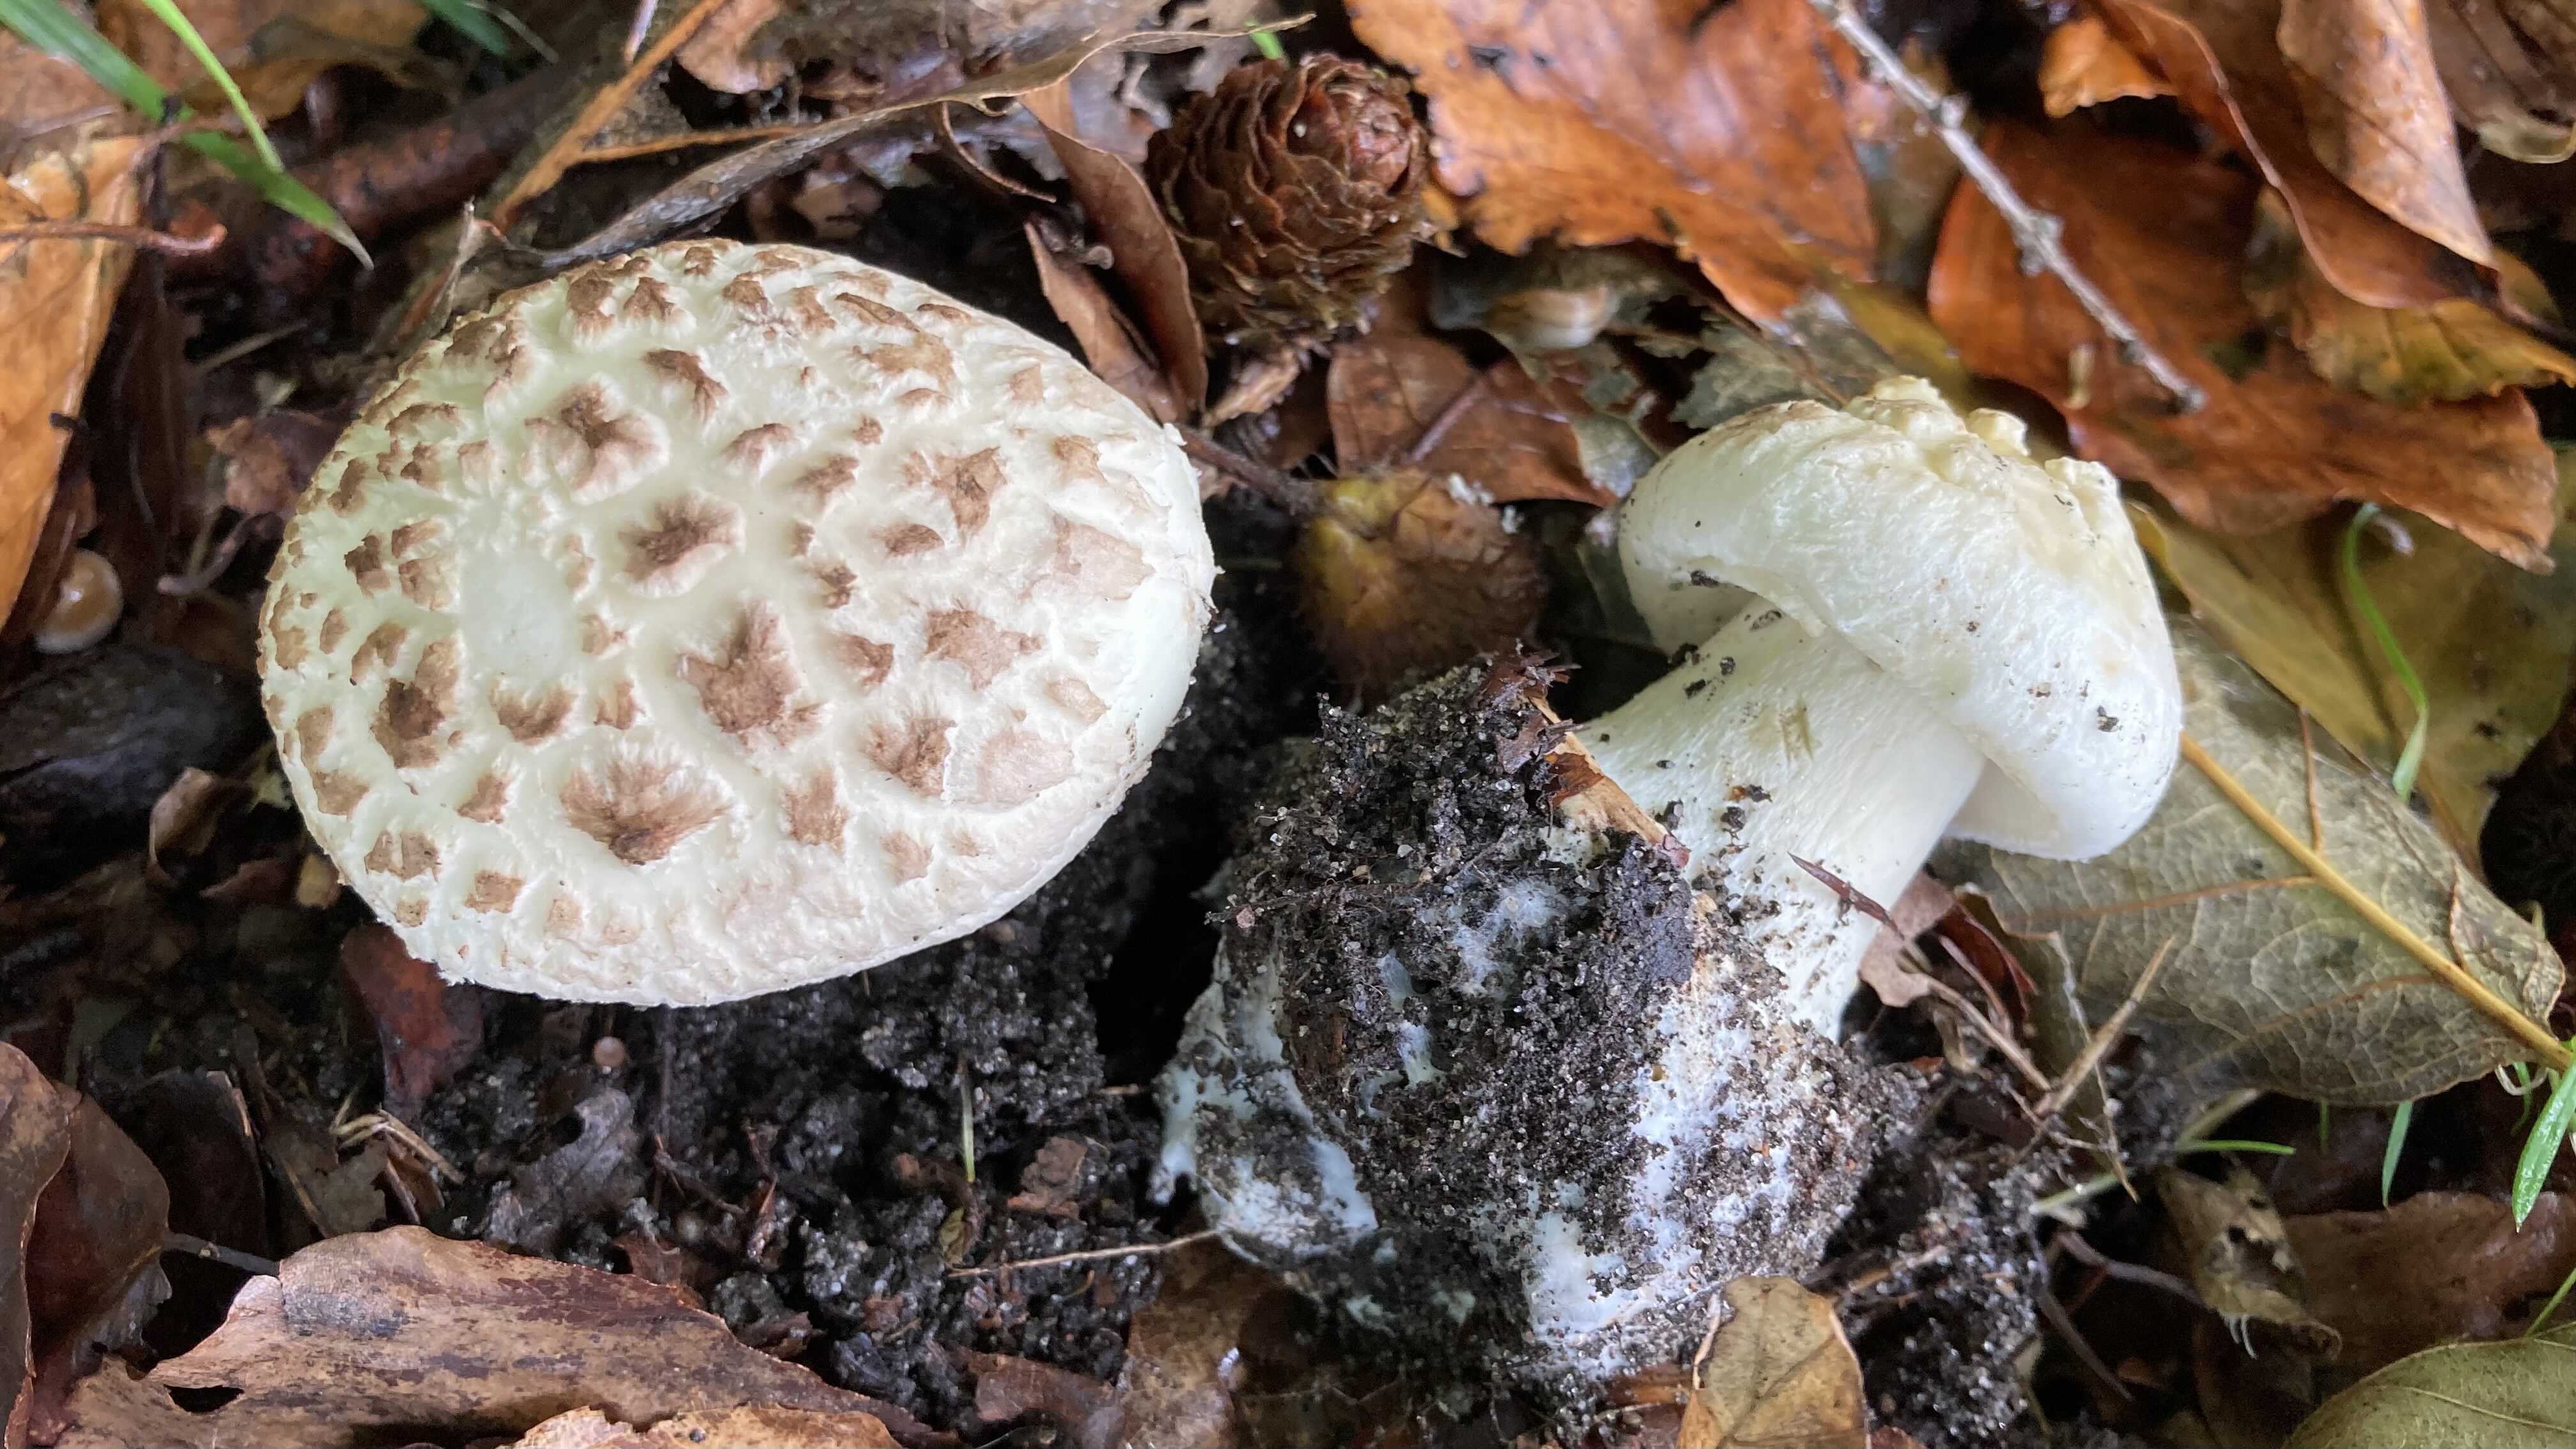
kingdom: Fungi
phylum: Basidiomycota
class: Agaricomycetes
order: Agaricales
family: Amanitaceae
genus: Amanita
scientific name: Amanita citrina
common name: False death-cap
